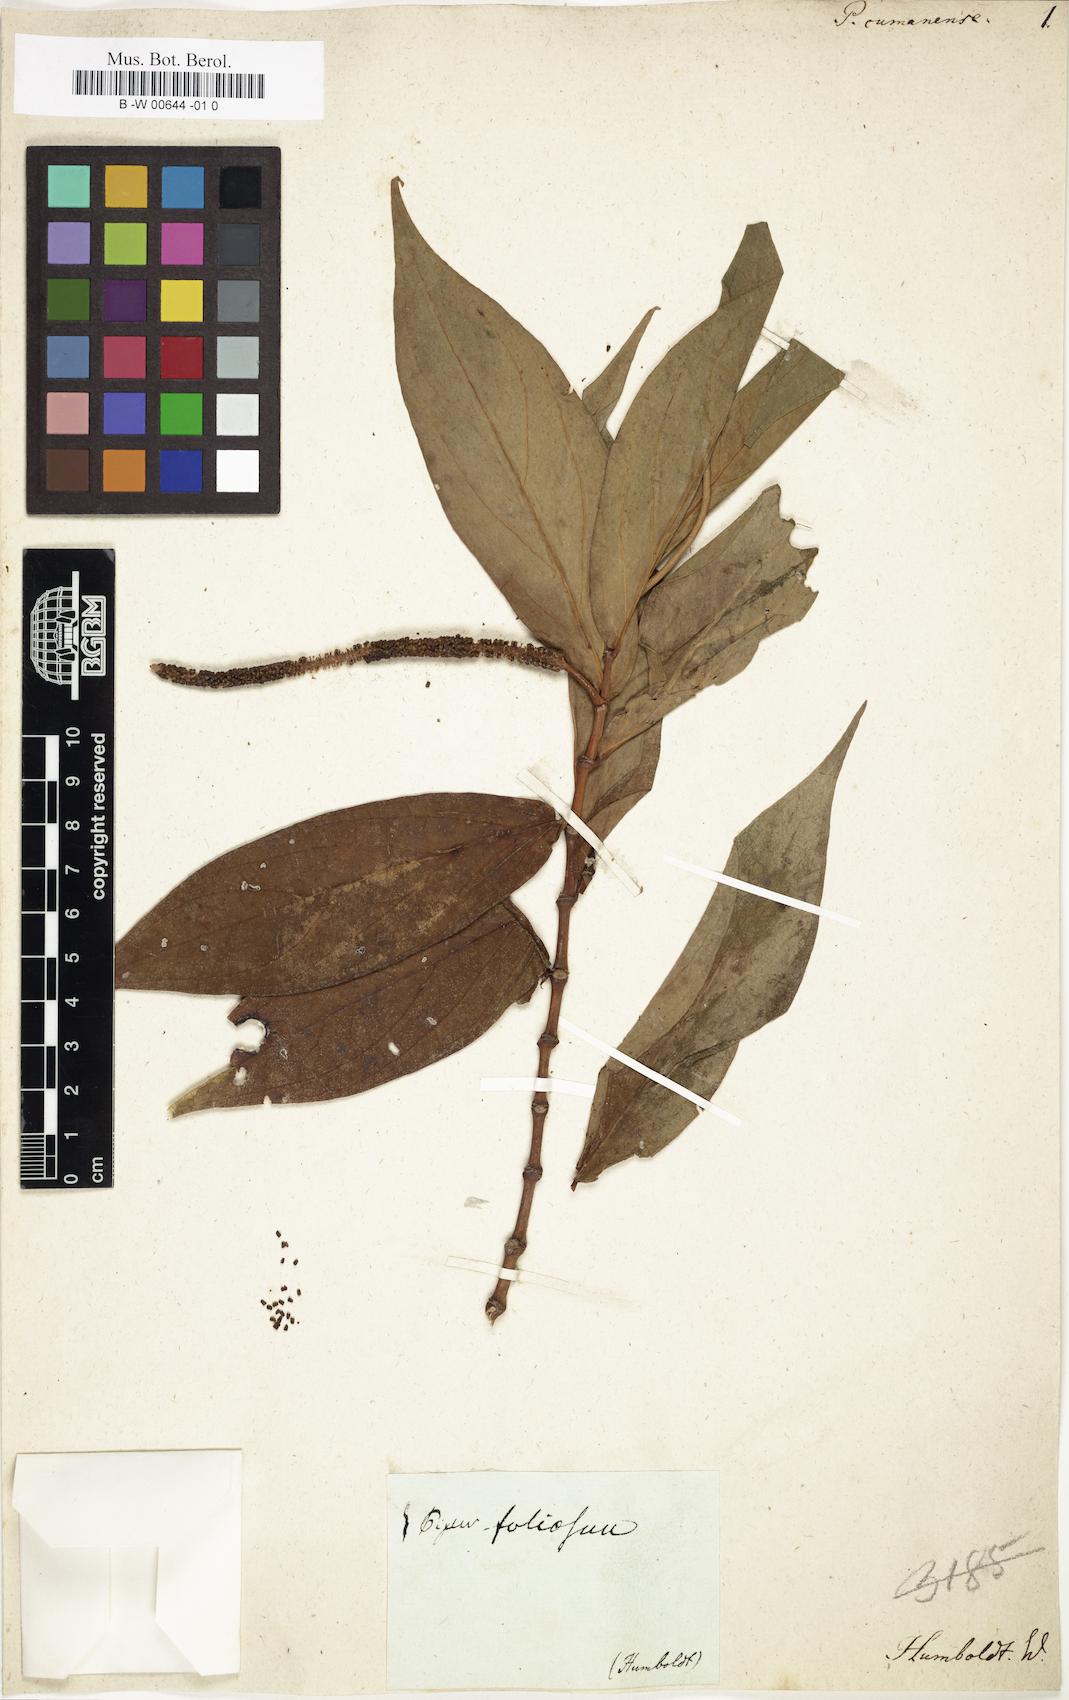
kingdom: Plantae
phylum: Tracheophyta
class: Magnoliopsida
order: Piperales
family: Piperaceae
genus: Piper
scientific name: Piper variegatum
